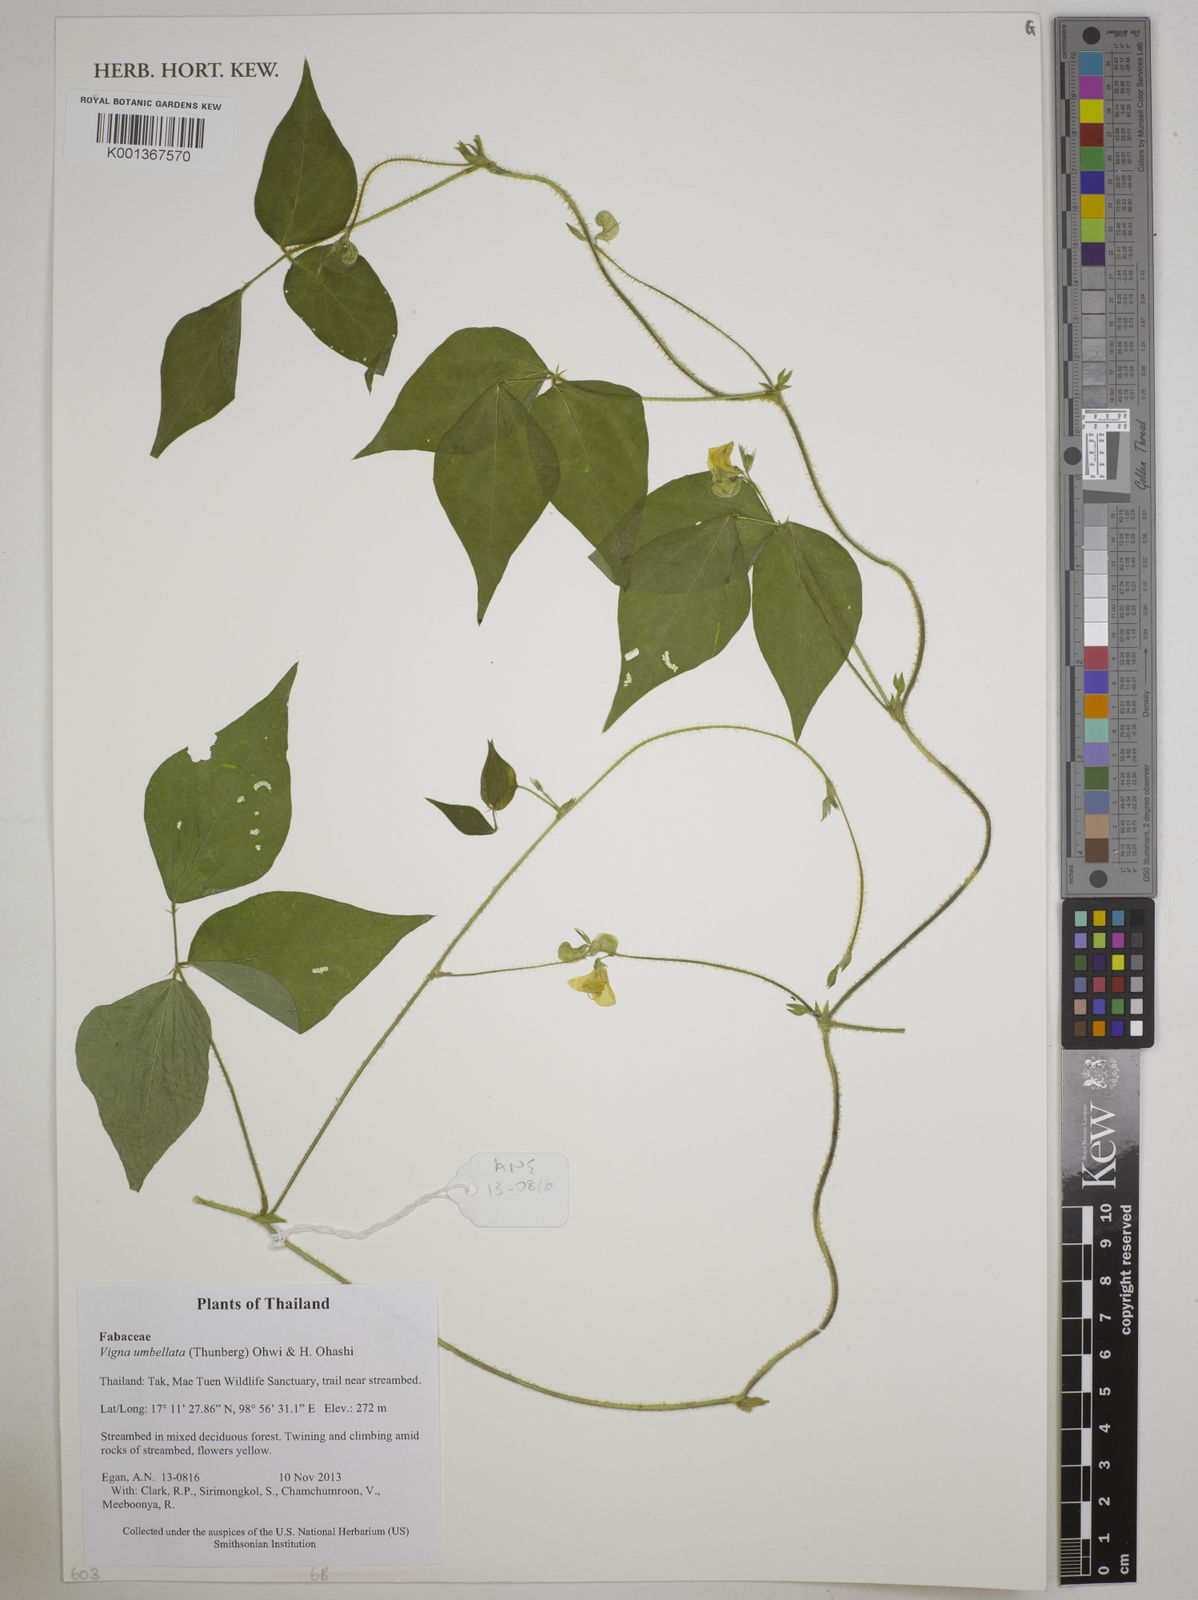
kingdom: Plantae
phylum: Tracheophyta
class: Magnoliopsida
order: Fabales
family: Fabaceae
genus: Vigna
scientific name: Vigna umbellata
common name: Oriental-bean
